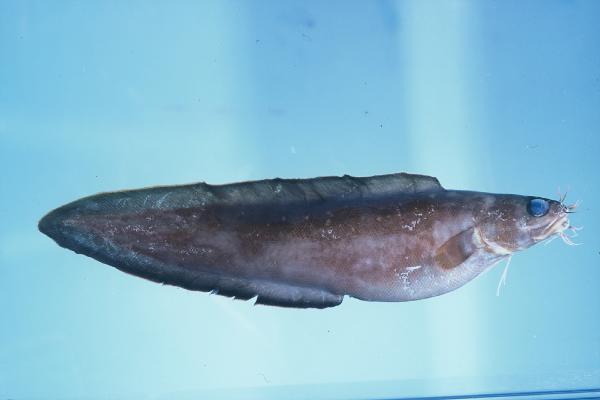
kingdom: Animalia
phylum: Chordata
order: Ophidiiformes
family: Ophidiidae
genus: Brotula
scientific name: Brotula multibarbata
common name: Goatsbeard brotula
